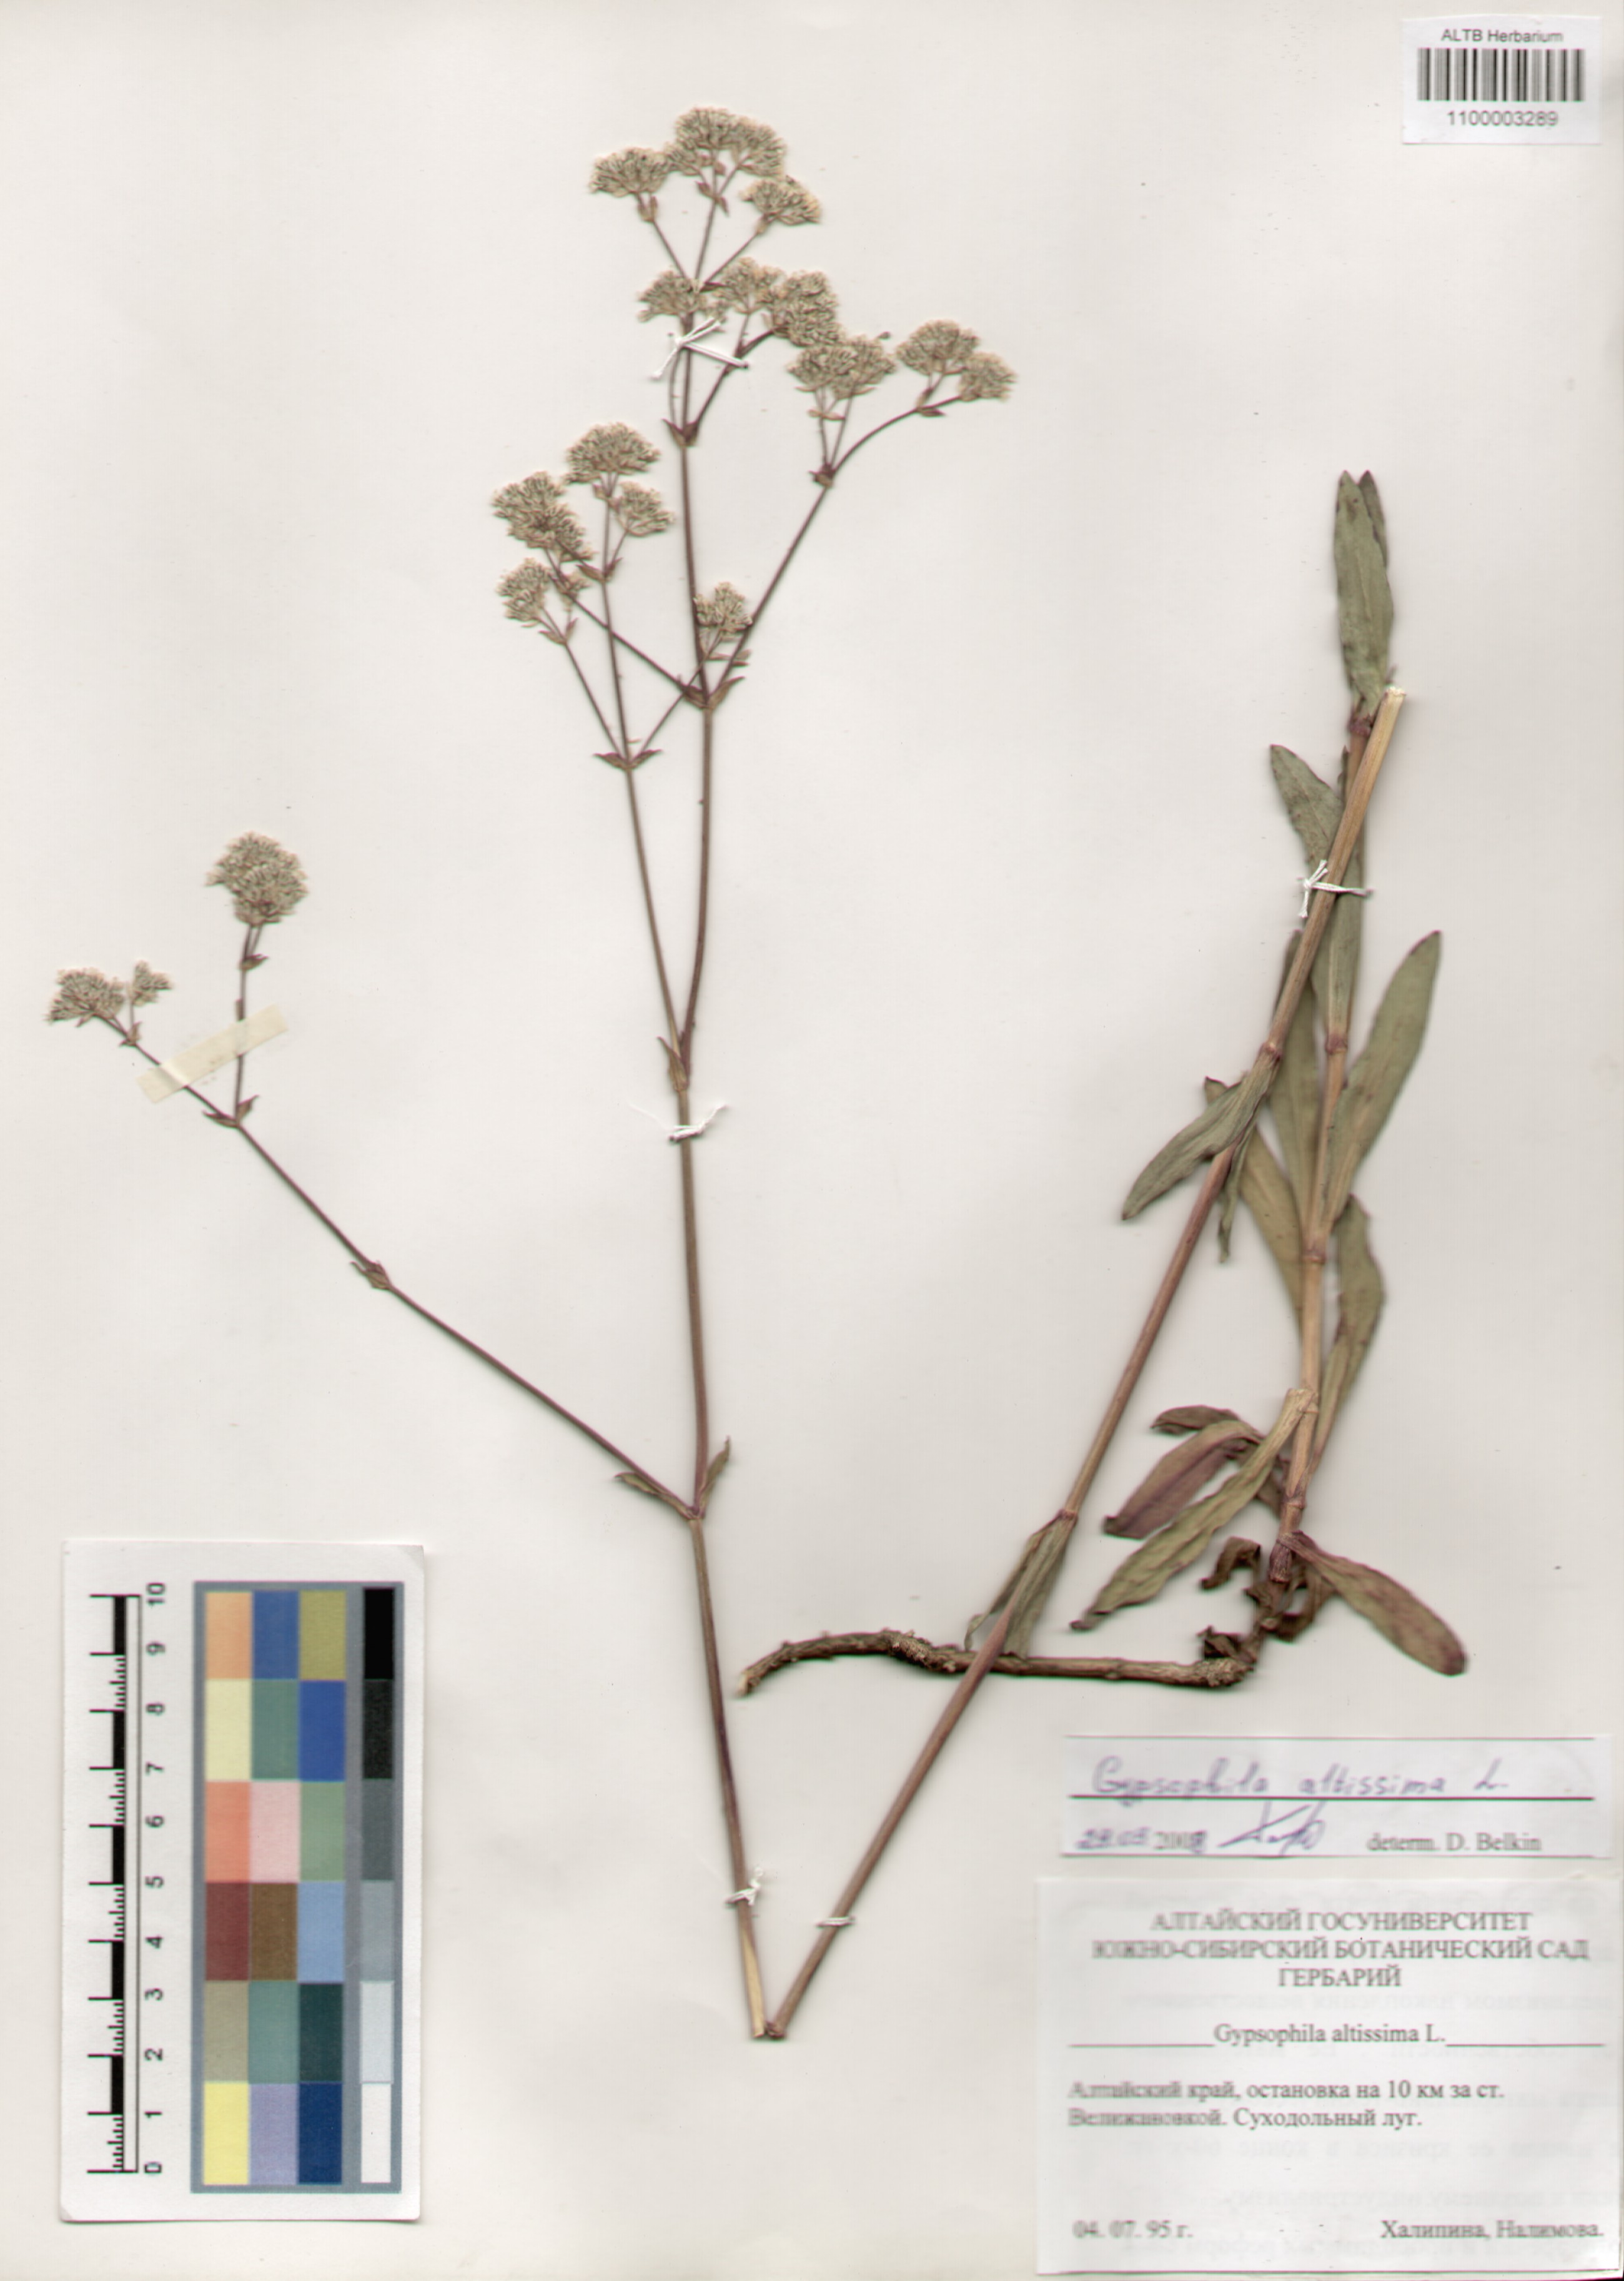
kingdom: Plantae
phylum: Tracheophyta
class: Magnoliopsida
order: Caryophyllales
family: Caryophyllaceae
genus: Gypsophila
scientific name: Gypsophila altissima
